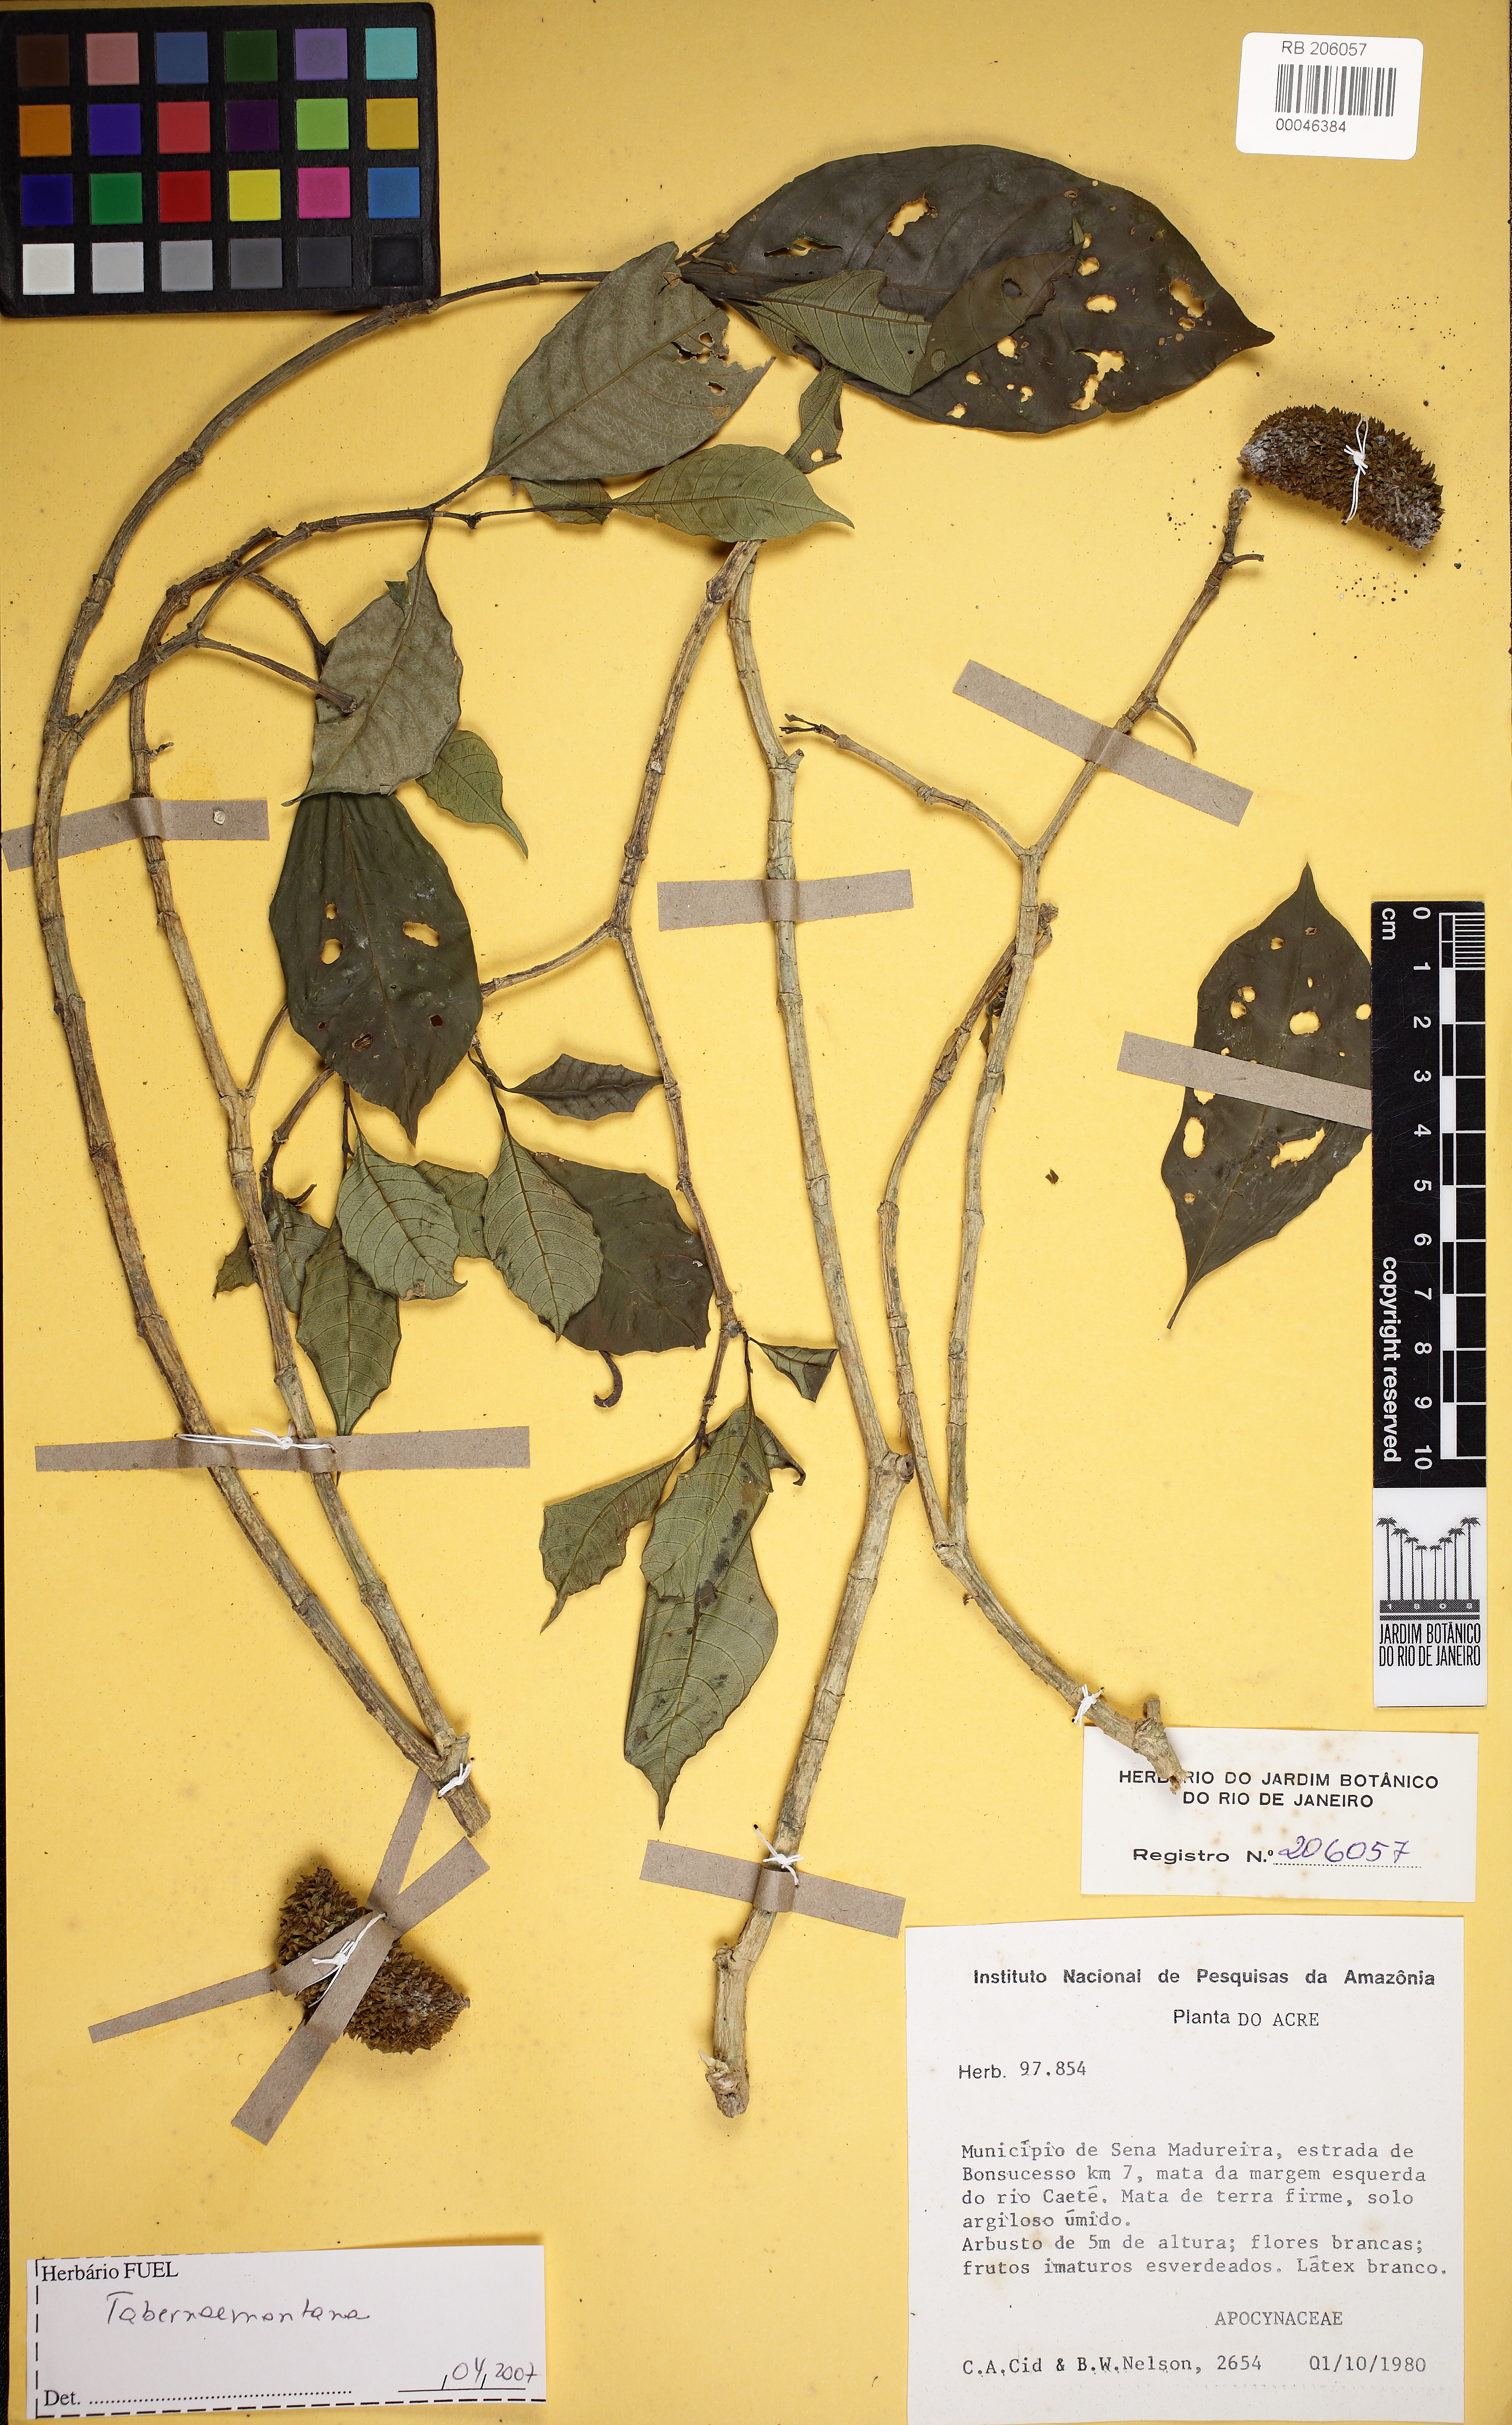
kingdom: Plantae
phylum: Tracheophyta
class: Magnoliopsida
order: Gentianales
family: Apocynaceae
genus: Tabernaemontana
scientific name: Tabernaemontana
